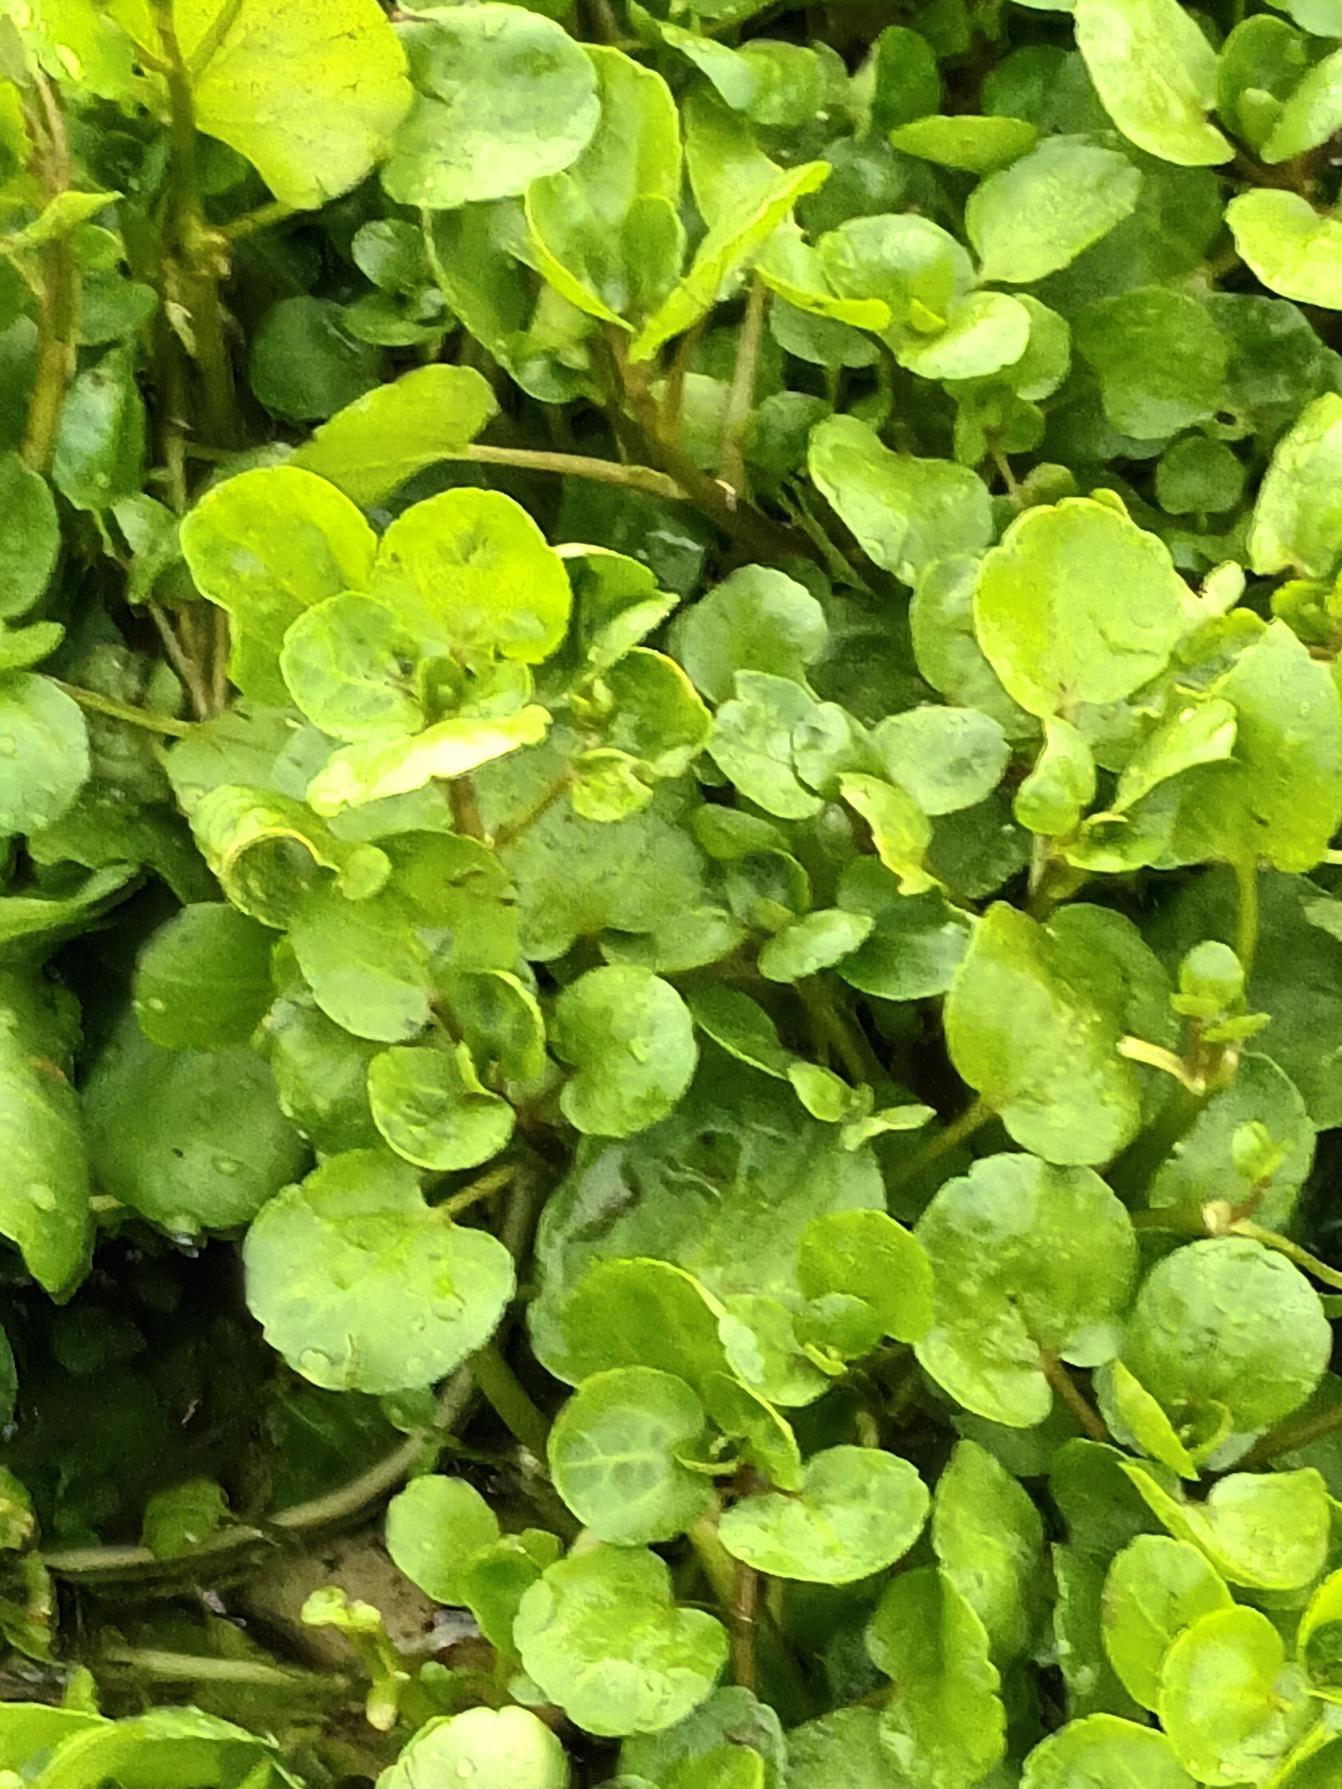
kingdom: Plantae
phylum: Tracheophyta
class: Magnoliopsida
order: Brassicales
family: Brassicaceae
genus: Nasturtium
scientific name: Nasturtium sterile
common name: Tyndskulpet brøndkarse × tykskulpet brøndkarse
